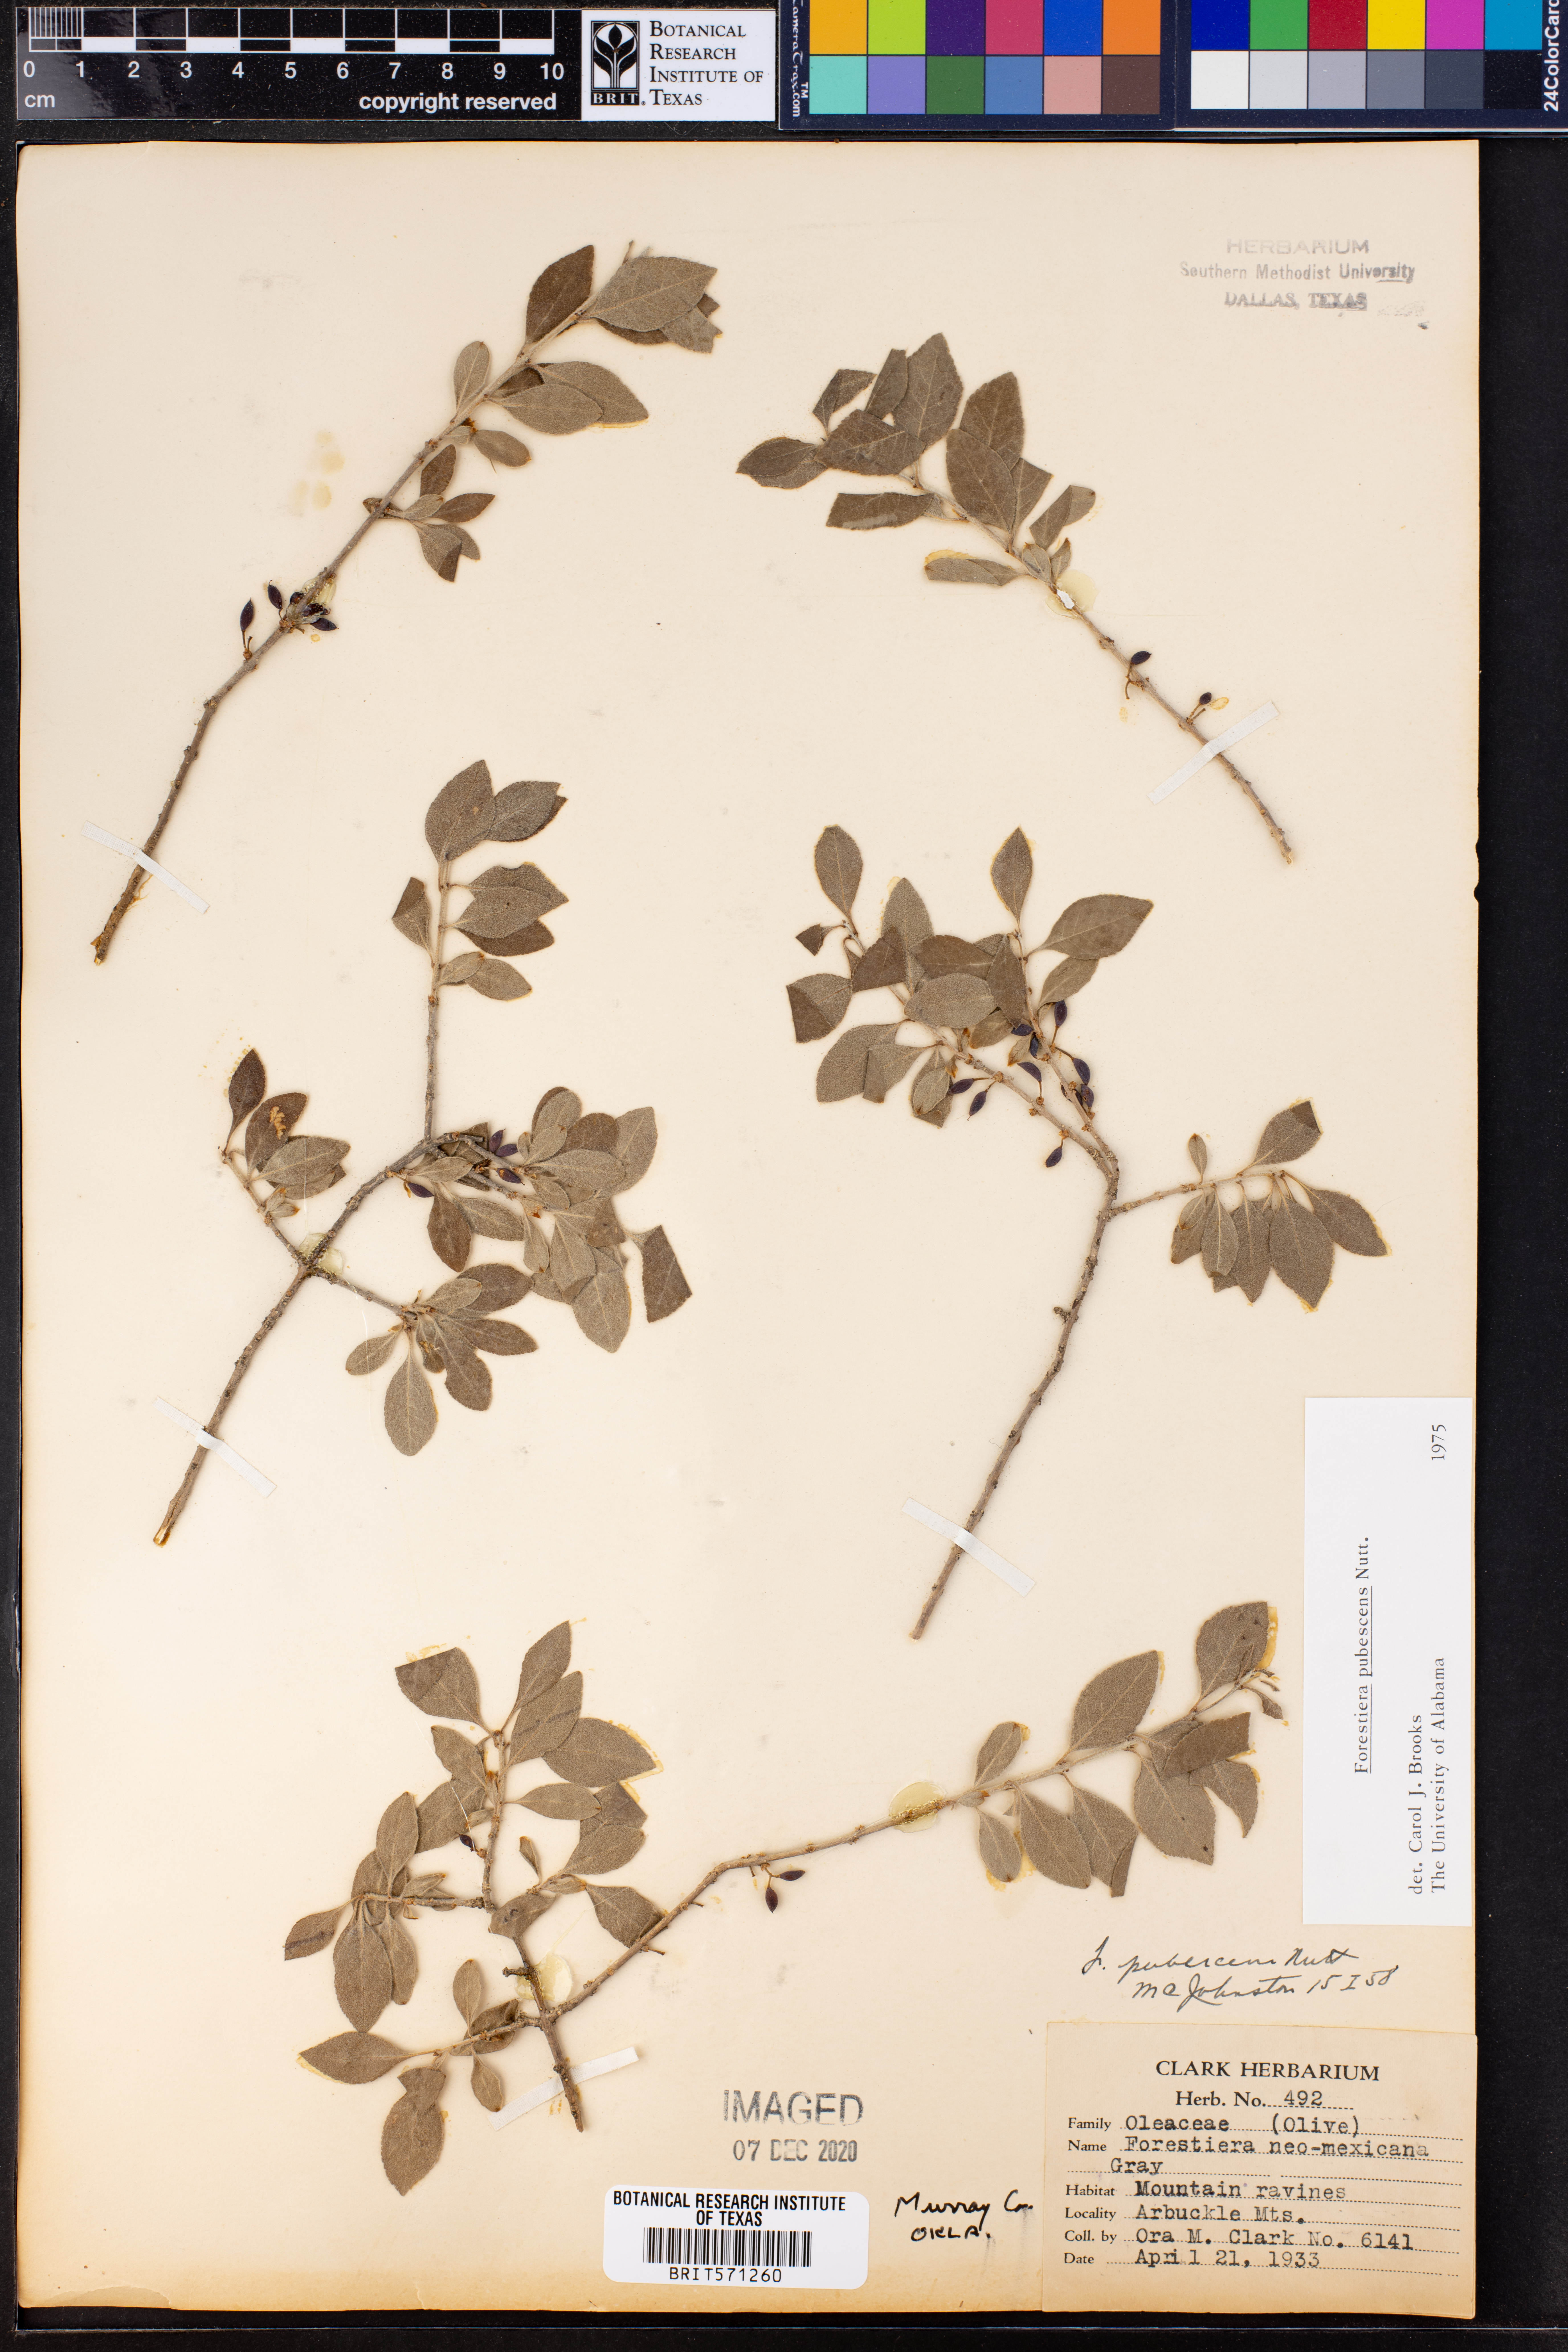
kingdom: Plantae
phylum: Tracheophyta
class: Magnoliopsida
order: Lamiales
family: Oleaceae
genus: Forestiera
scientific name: Forestiera pubescens
